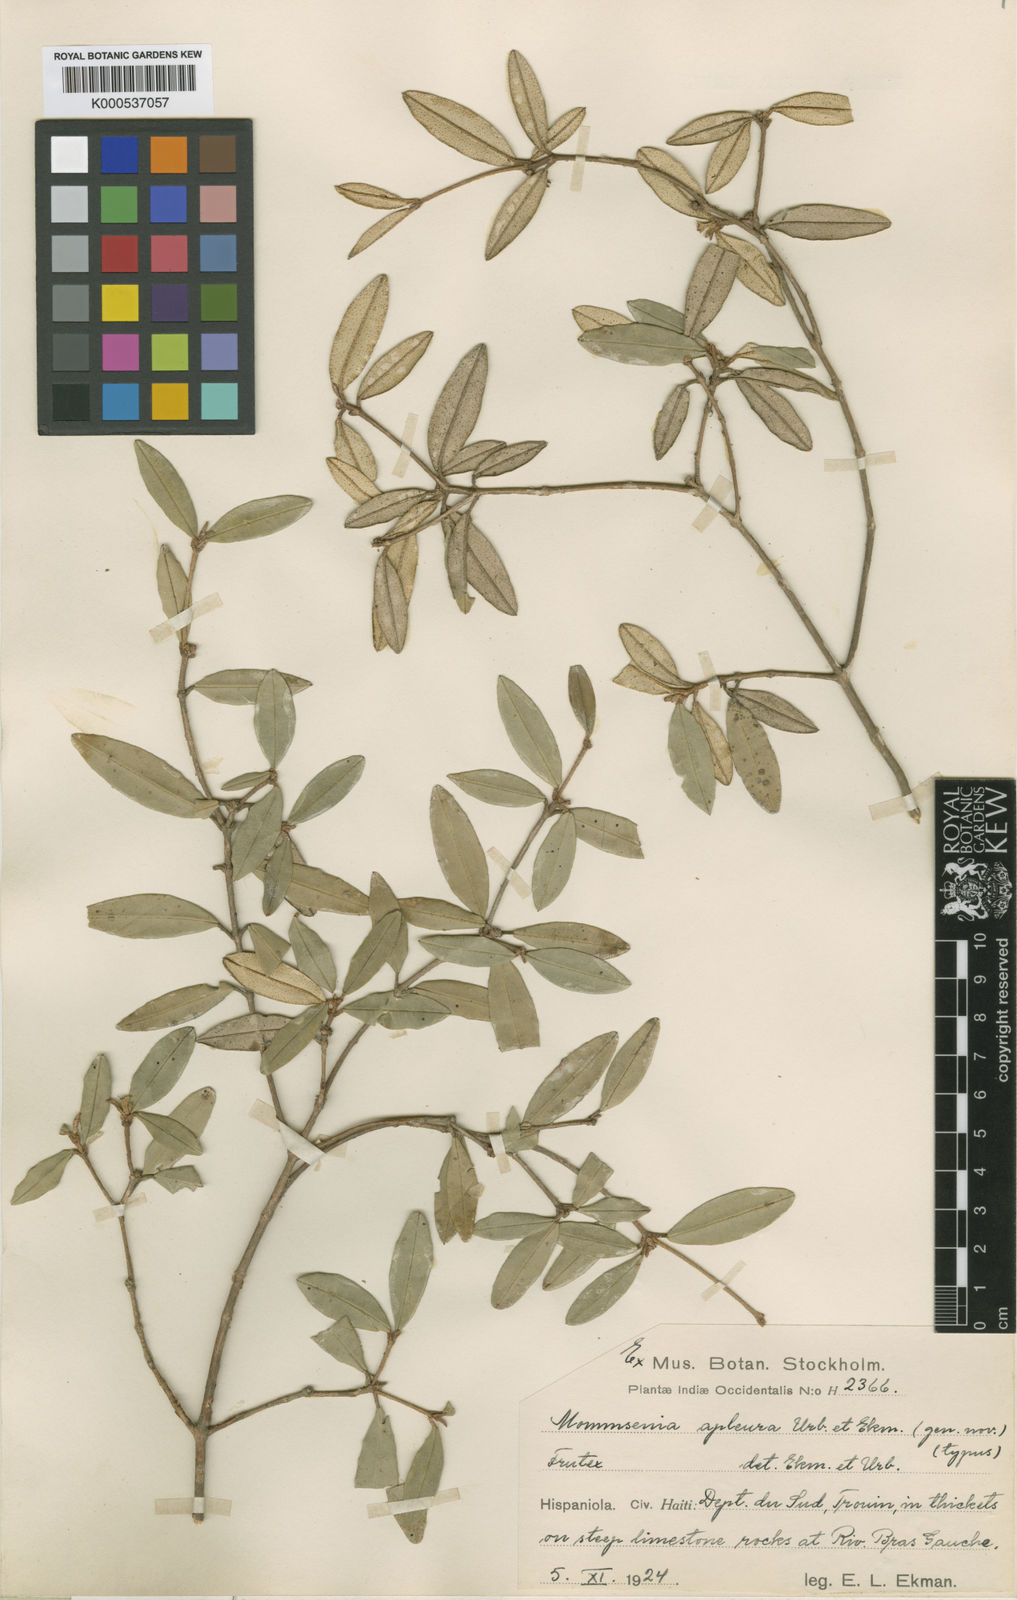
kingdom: Plantae
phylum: Tracheophyta
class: Magnoliopsida
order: Myrtales
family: Melastomataceae
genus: Miconia
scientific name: Miconia apleura
